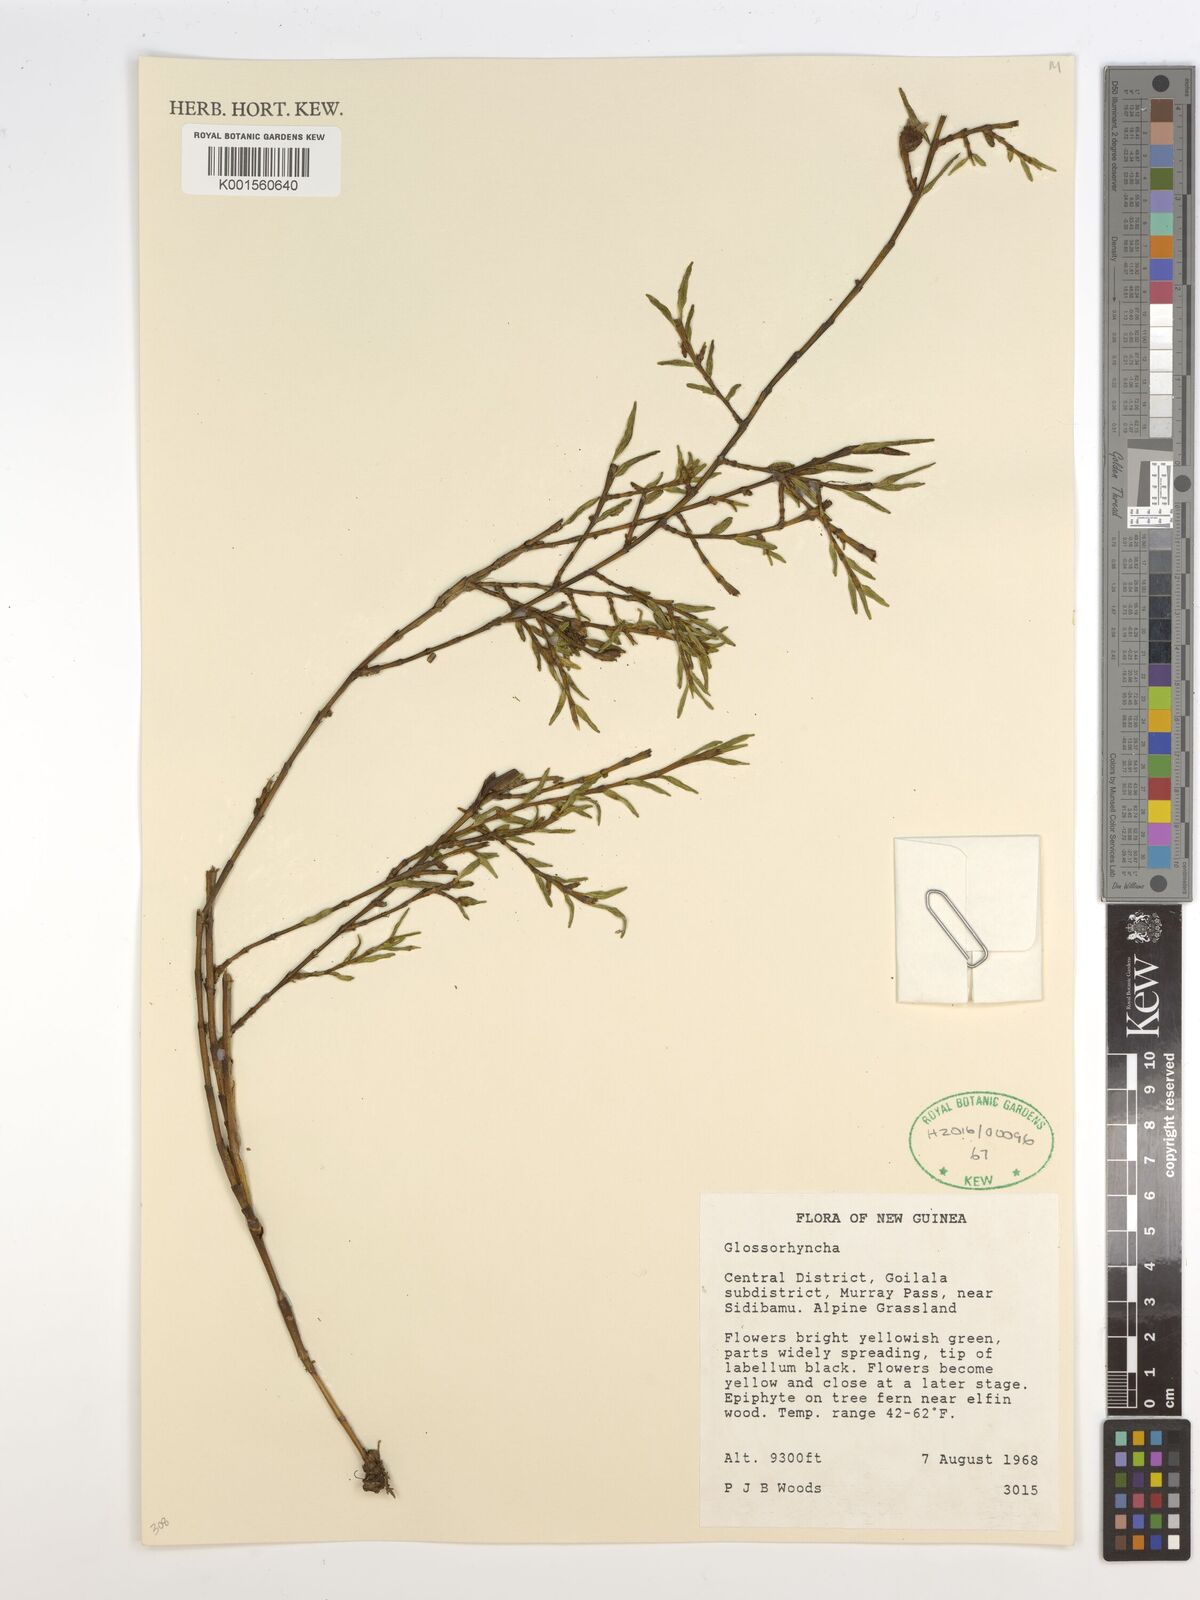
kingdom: Plantae
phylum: Tracheophyta
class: Liliopsida
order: Asparagales
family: Orchidaceae
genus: Glomera
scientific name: Glomera
